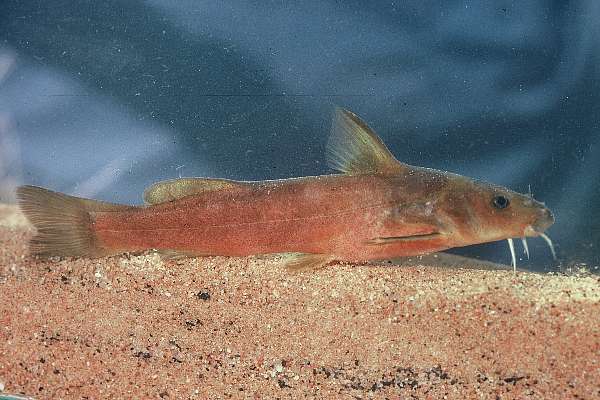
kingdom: Animalia
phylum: Chordata
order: Siluriformes
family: Austroglanididae
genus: Austroglanis
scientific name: Austroglanis gilli
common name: Clanwilliam rock-catfish
